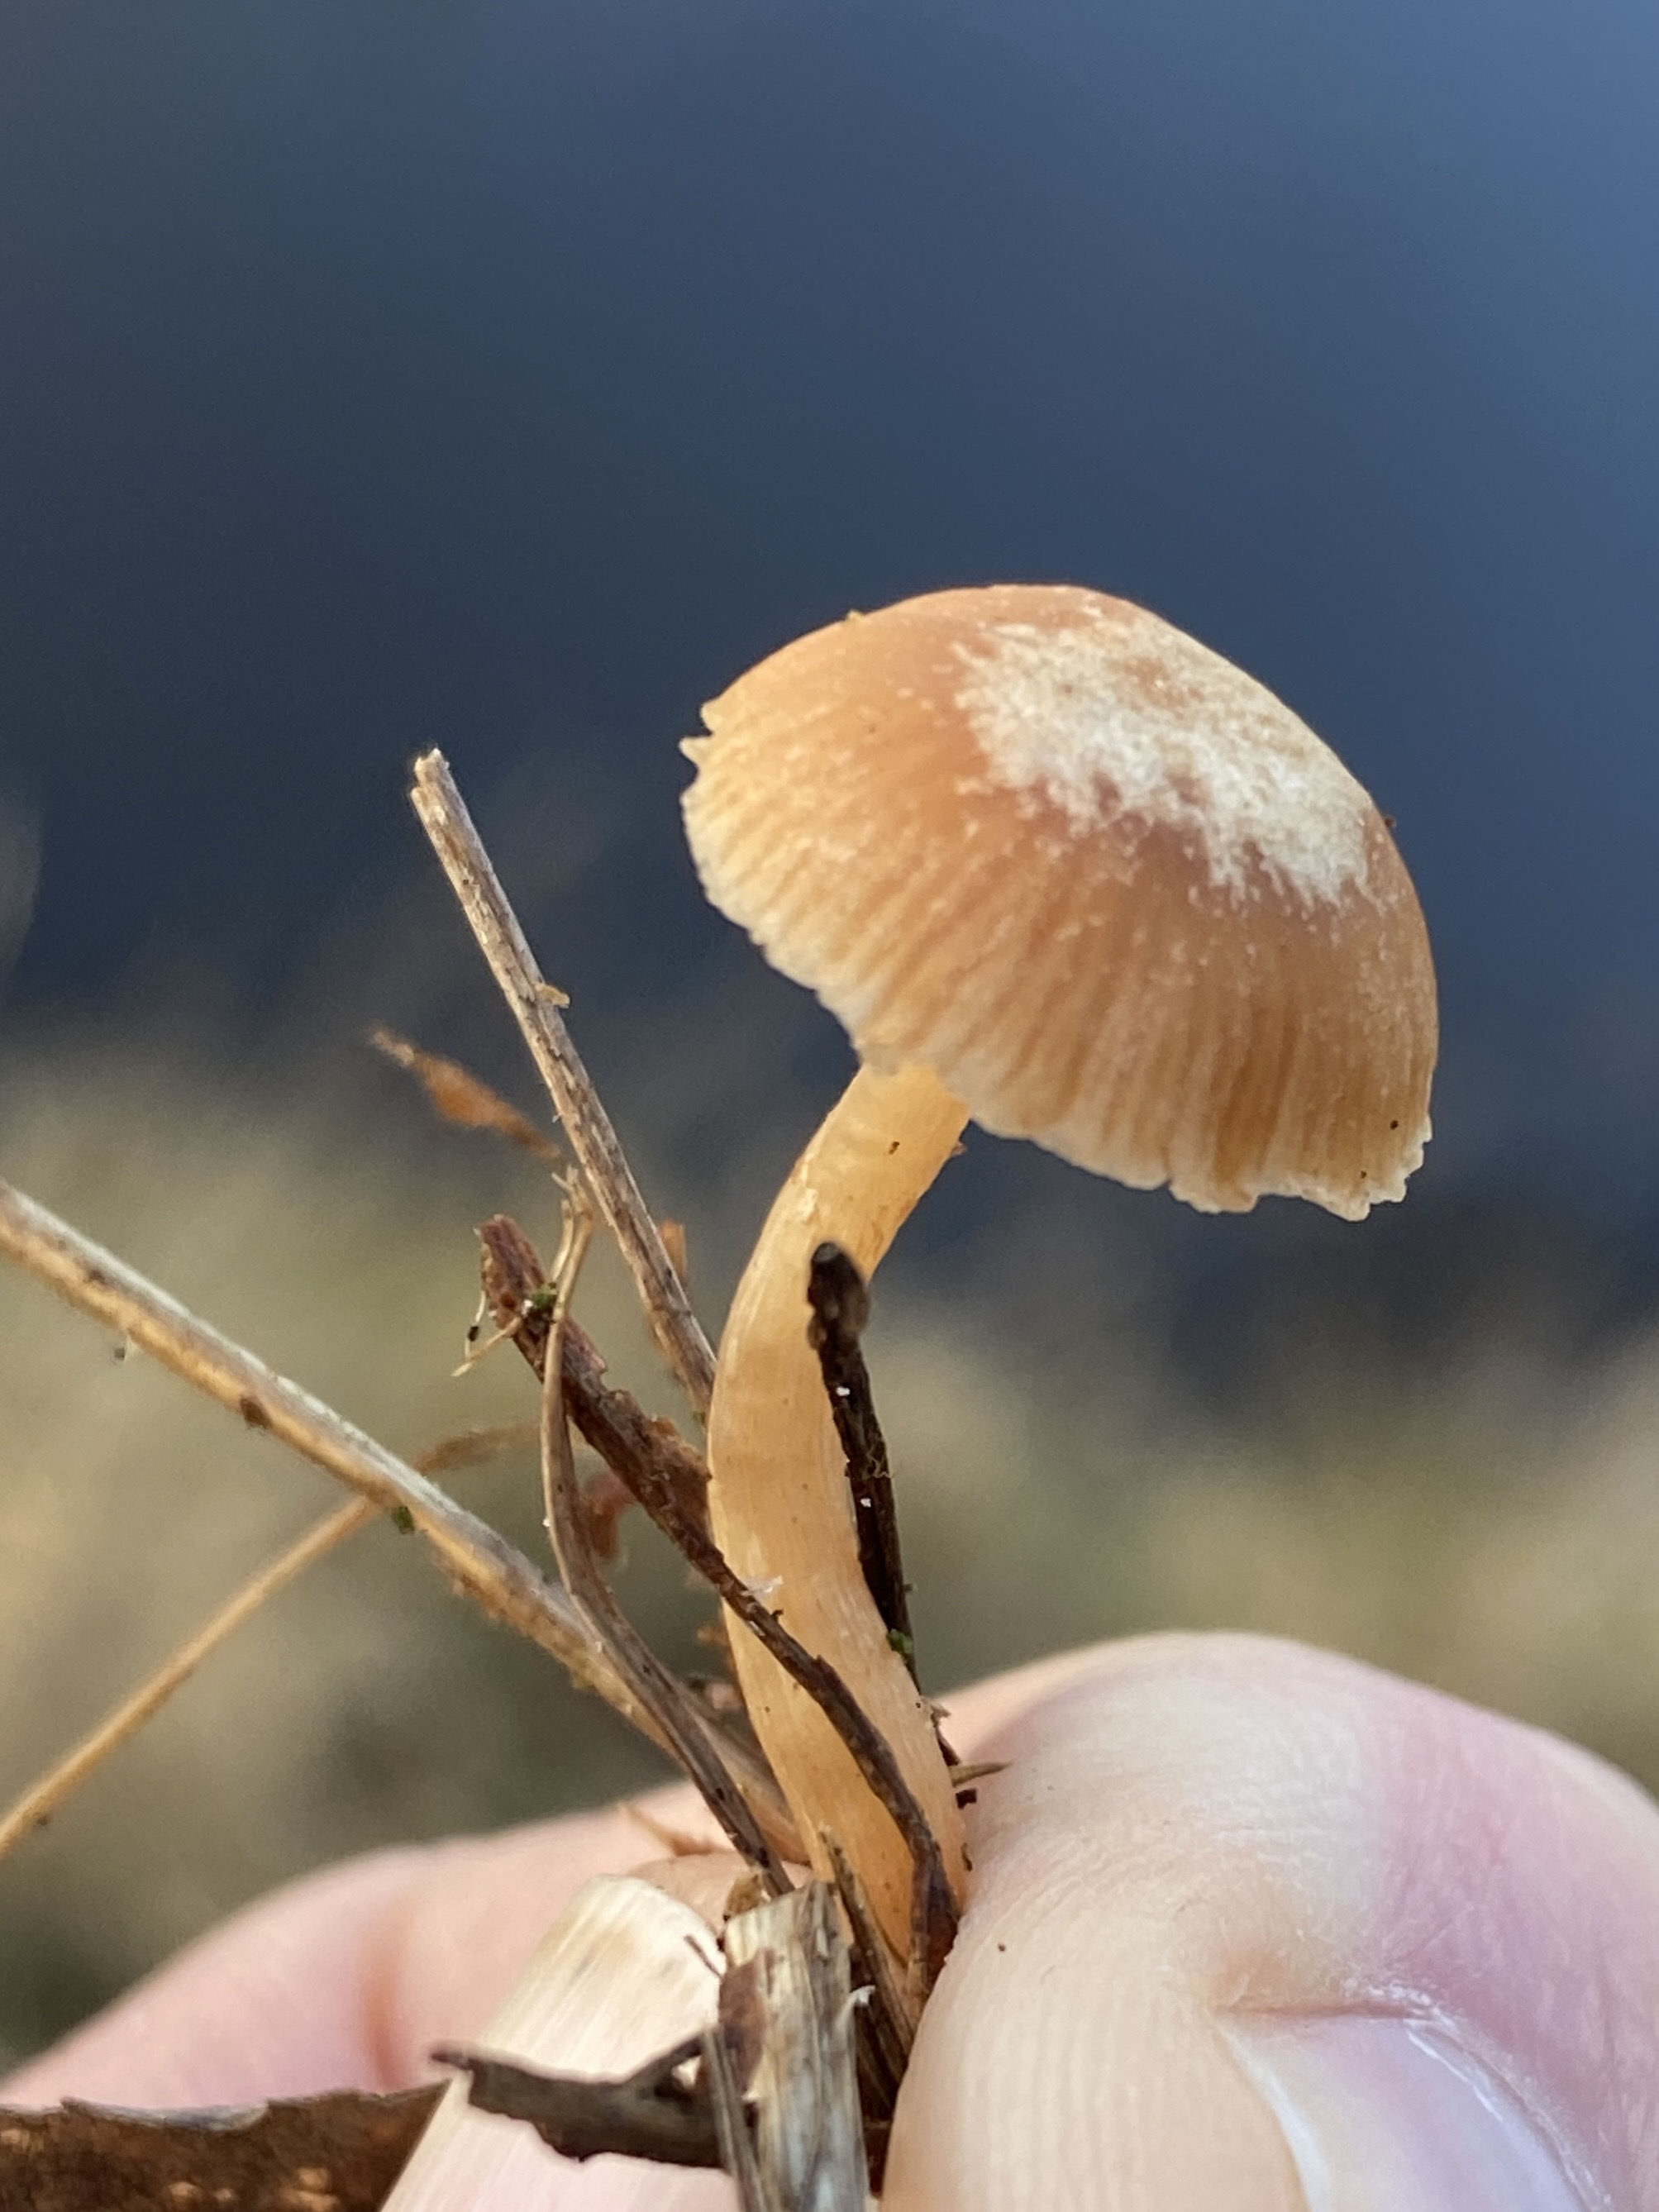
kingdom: Fungi
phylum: Basidiomycota
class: Agaricomycetes
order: Agaricales
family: Tubariaceae
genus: Tubaria
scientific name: Tubaria furfuracea
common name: kliddet fnughat
